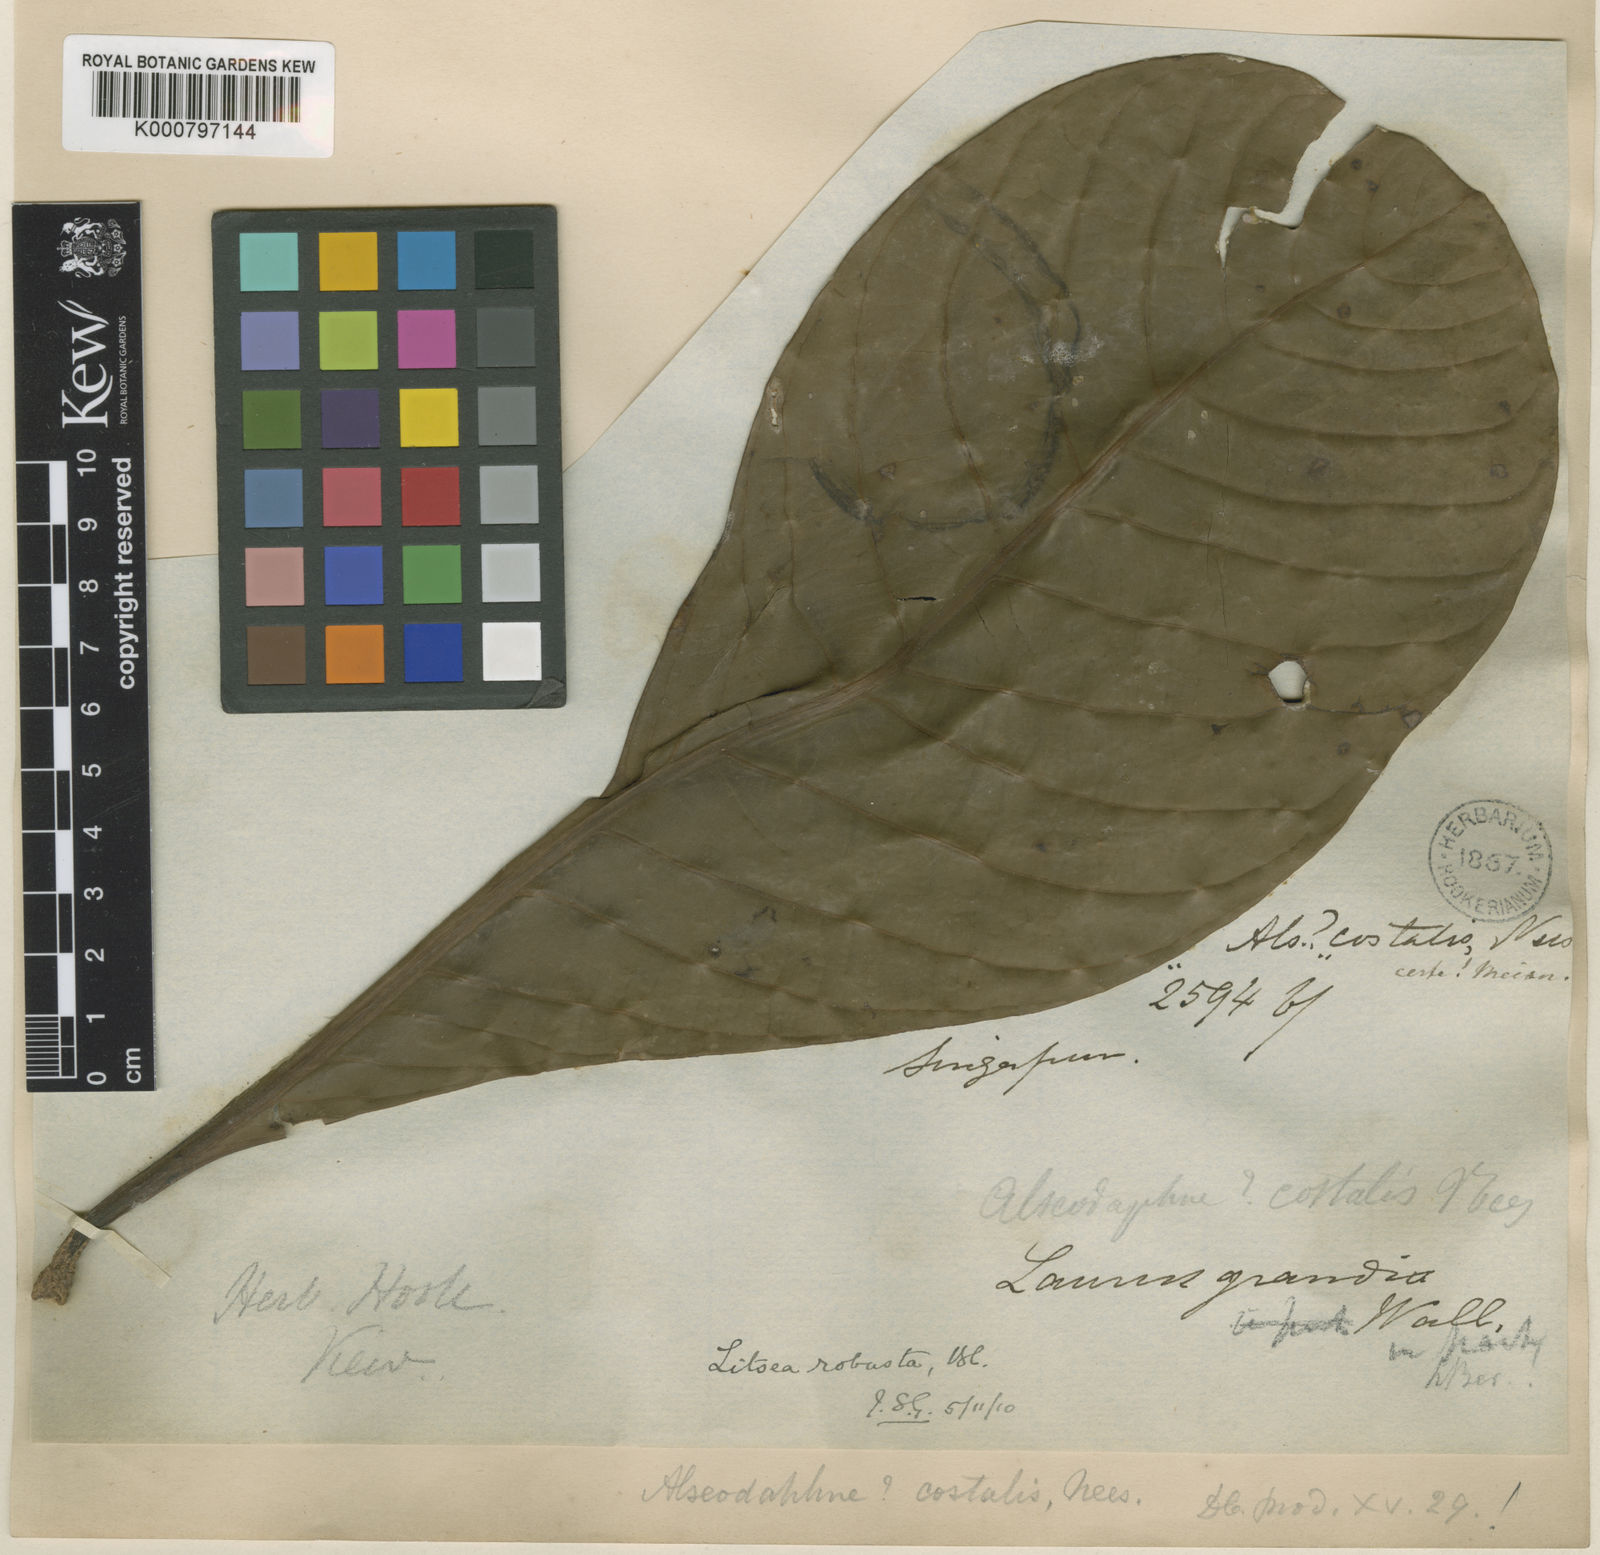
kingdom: Plantae
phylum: Tracheophyta
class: Magnoliopsida
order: Laurales
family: Lauraceae
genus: Litsea
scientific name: Litsea robusta
